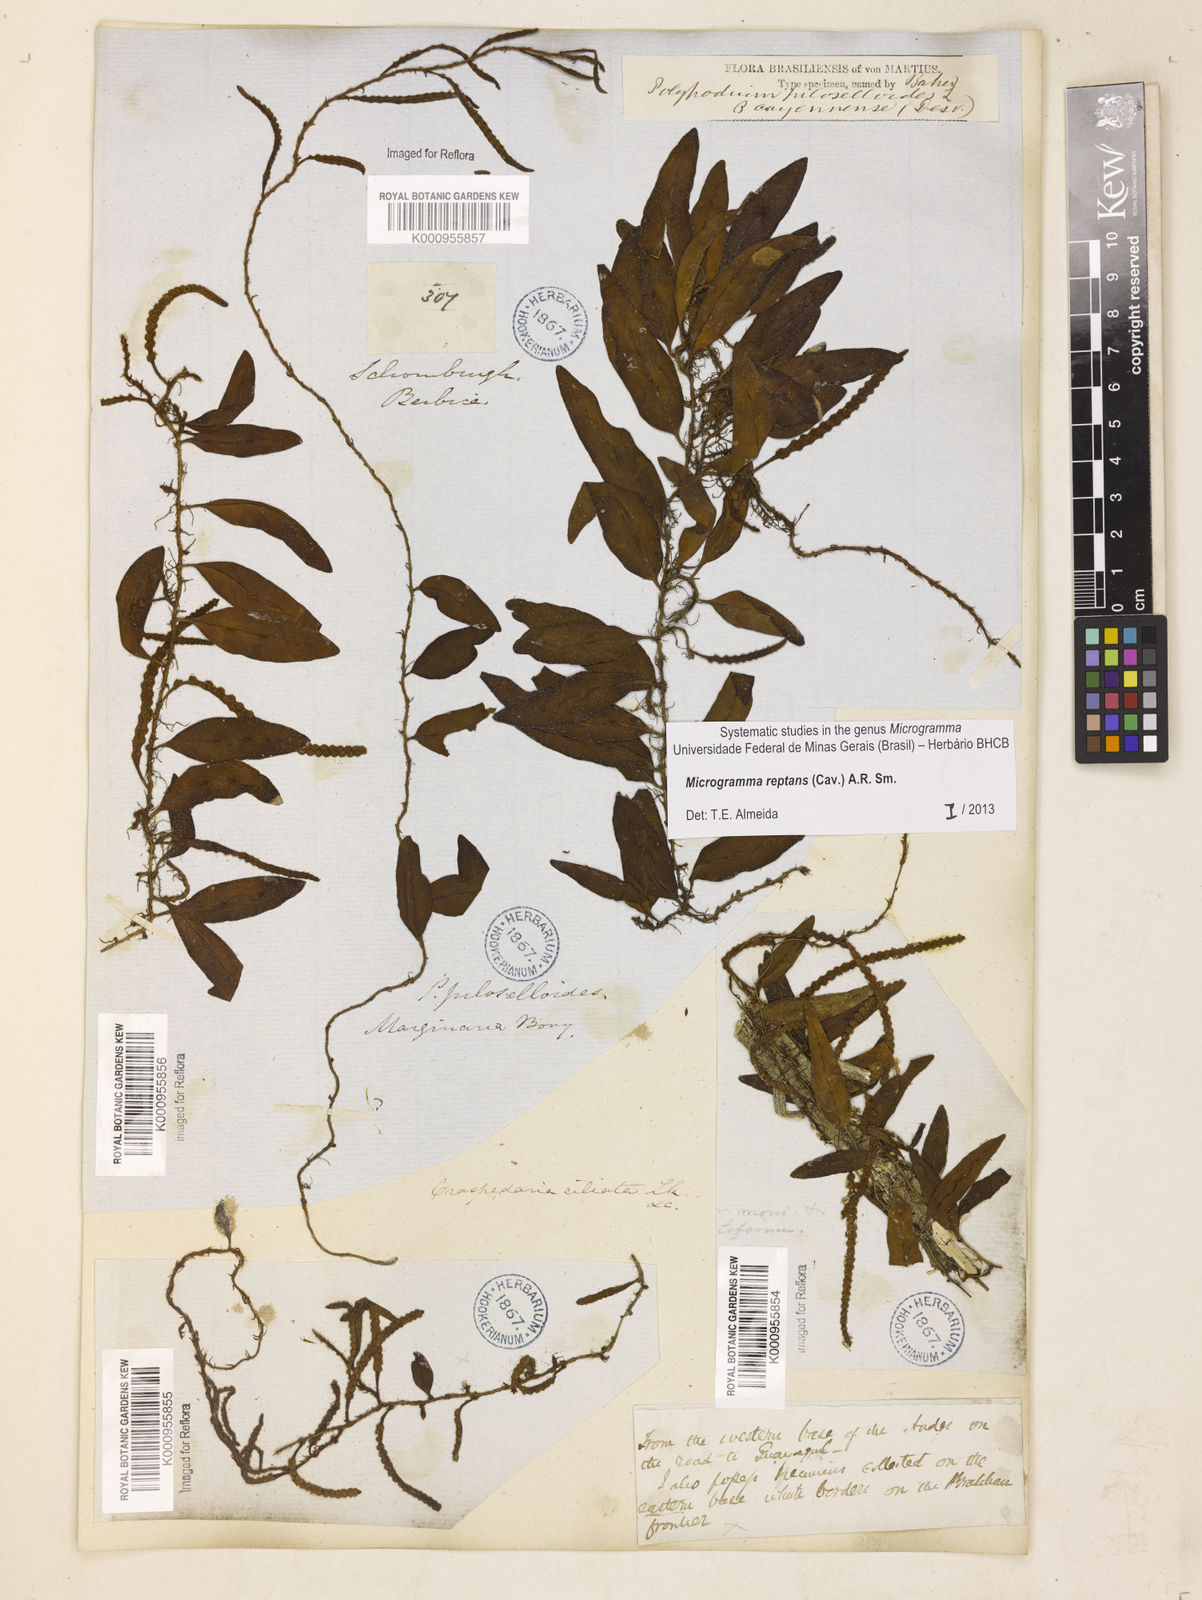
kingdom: Plantae
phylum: Tracheophyta
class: Polypodiopsida
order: Polypodiales
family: Polypodiaceae
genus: Microgramma
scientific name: Microgramma reptans
